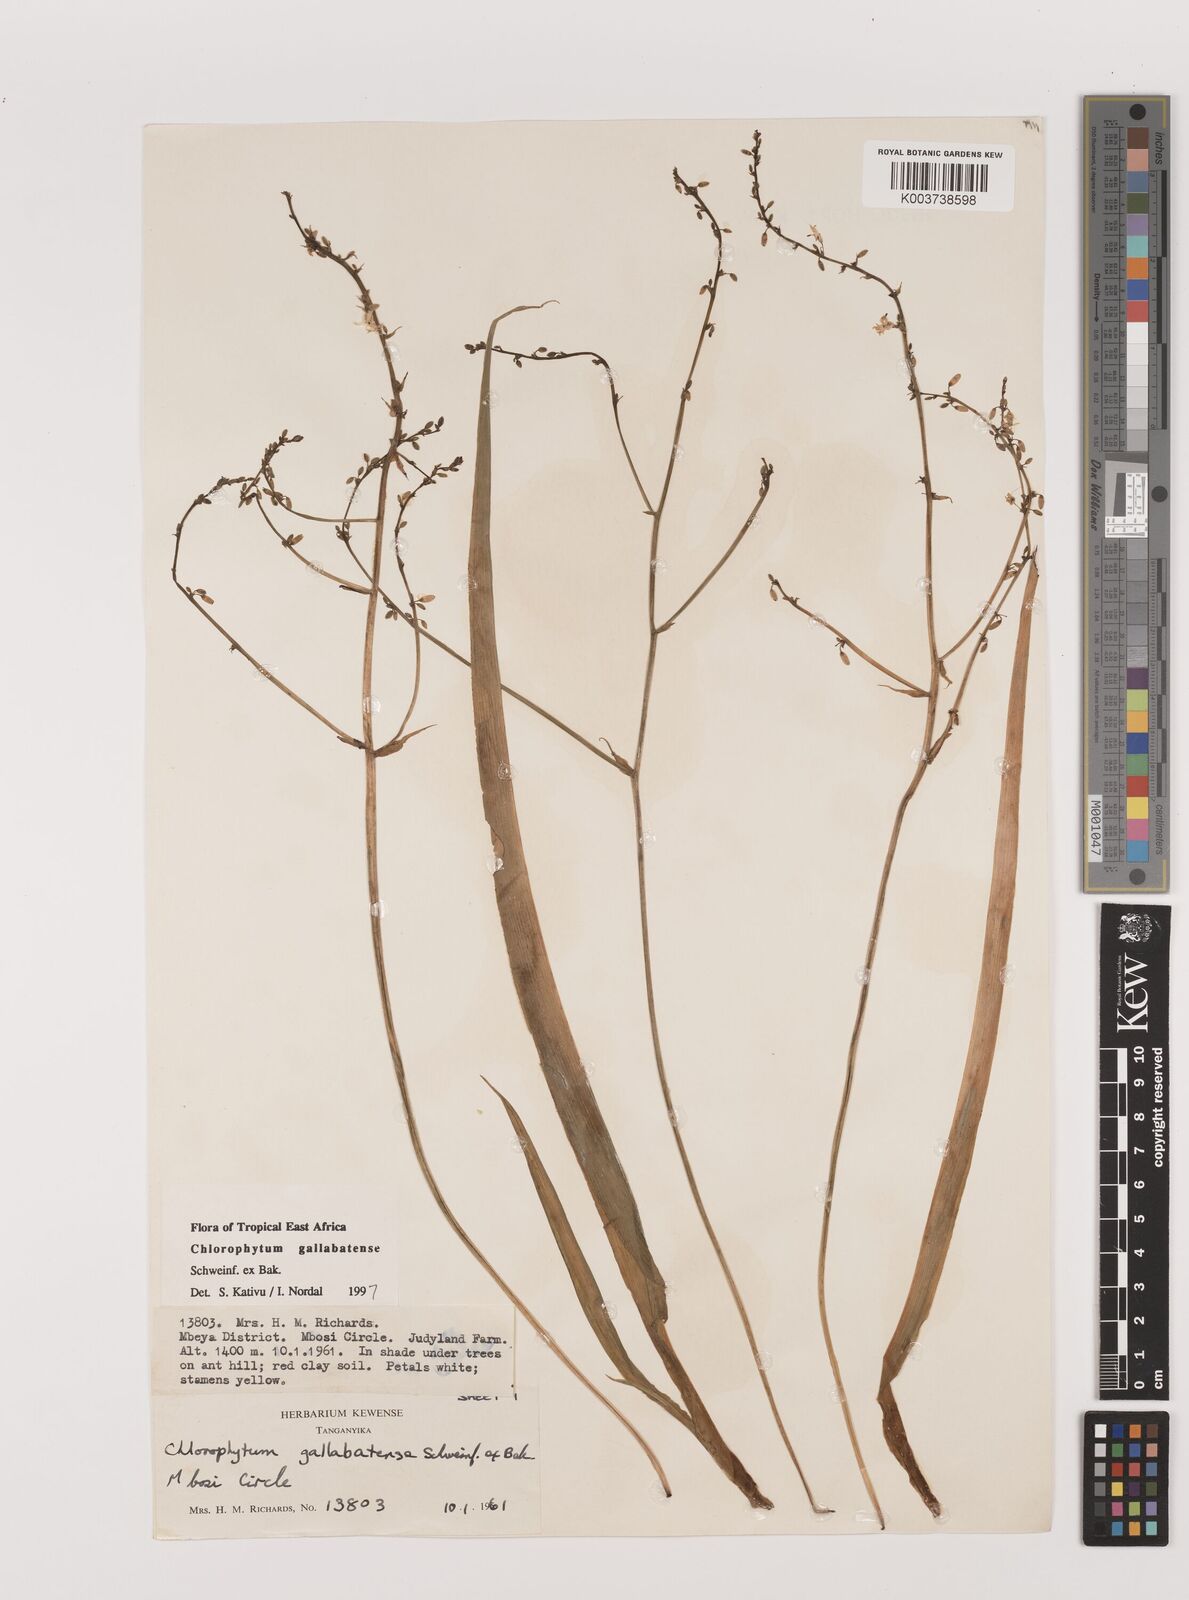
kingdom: Plantae
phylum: Tracheophyta
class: Liliopsida
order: Asparagales
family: Asparagaceae
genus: Chlorophytum
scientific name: Chlorophytum gallabatense
